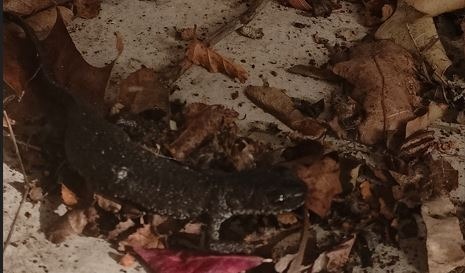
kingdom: Animalia
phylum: Chordata
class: Amphibia
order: Caudata
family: Salamandridae
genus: Triturus
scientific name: Triturus cristatus
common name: Stor vandsalamander
